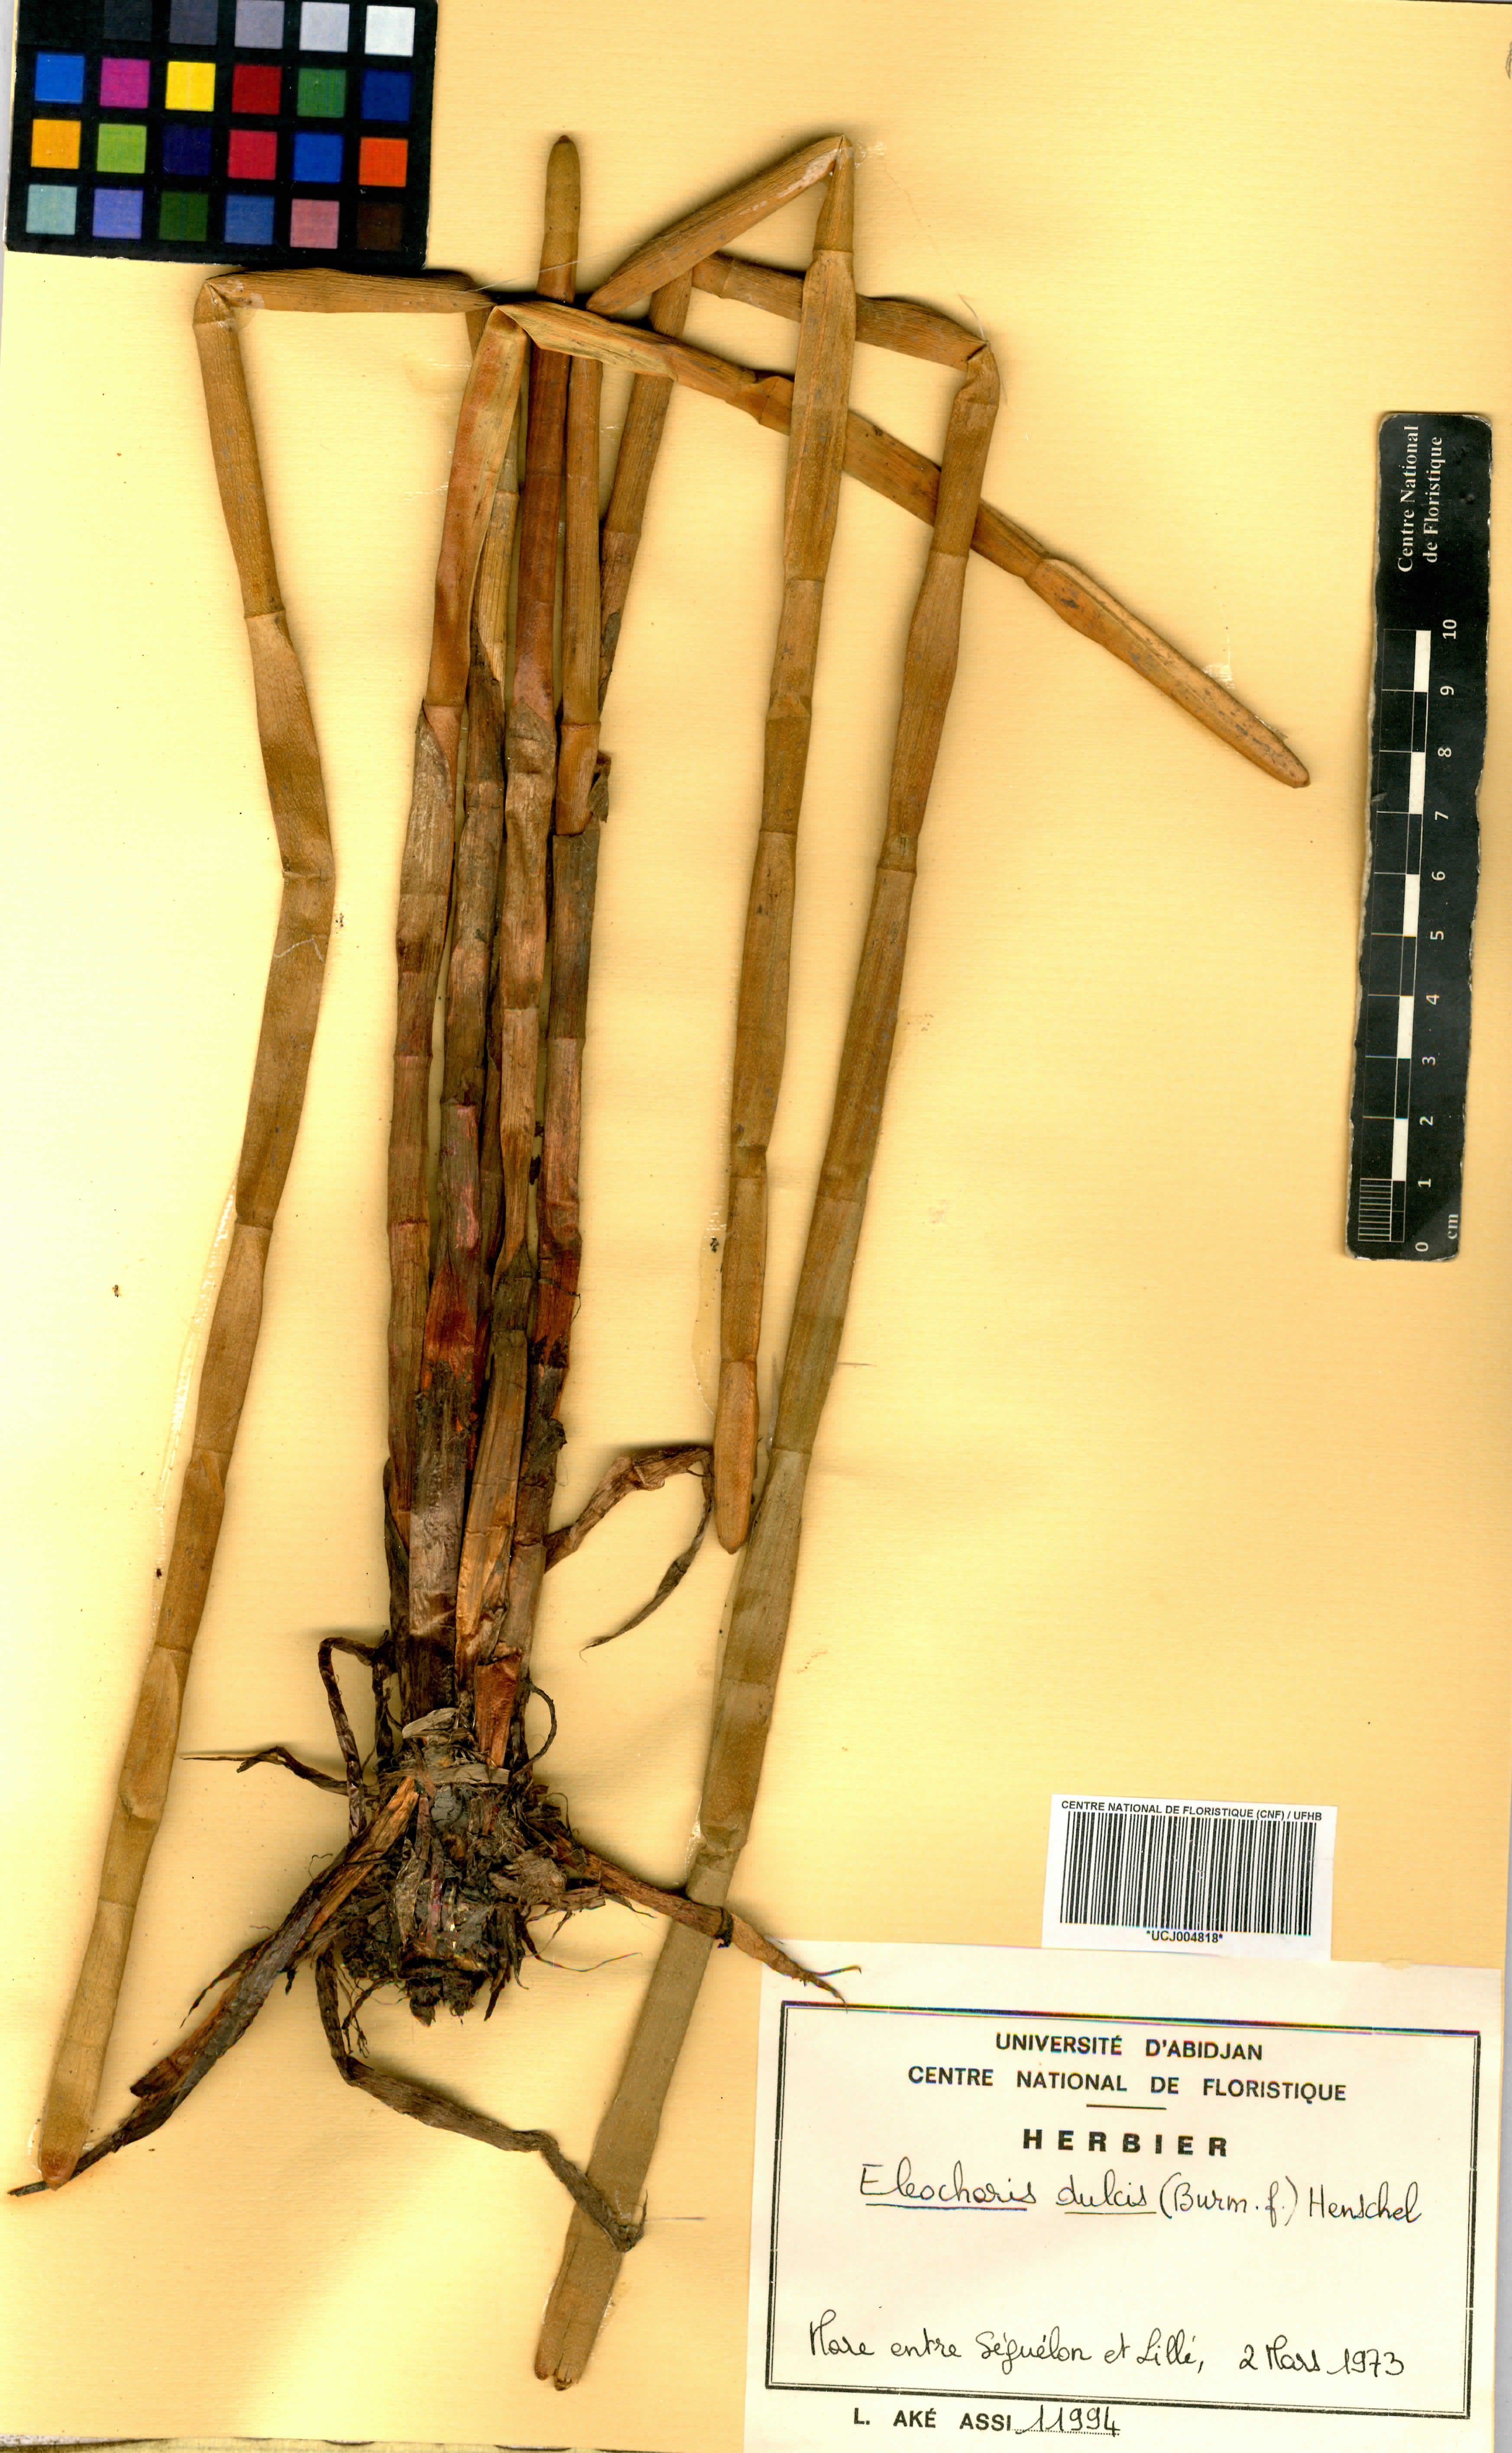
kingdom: Plantae
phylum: Tracheophyta
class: Liliopsida
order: Poales
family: Cyperaceae
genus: Eleocharis
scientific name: Eleocharis dulcis
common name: Chinese water chestnut
